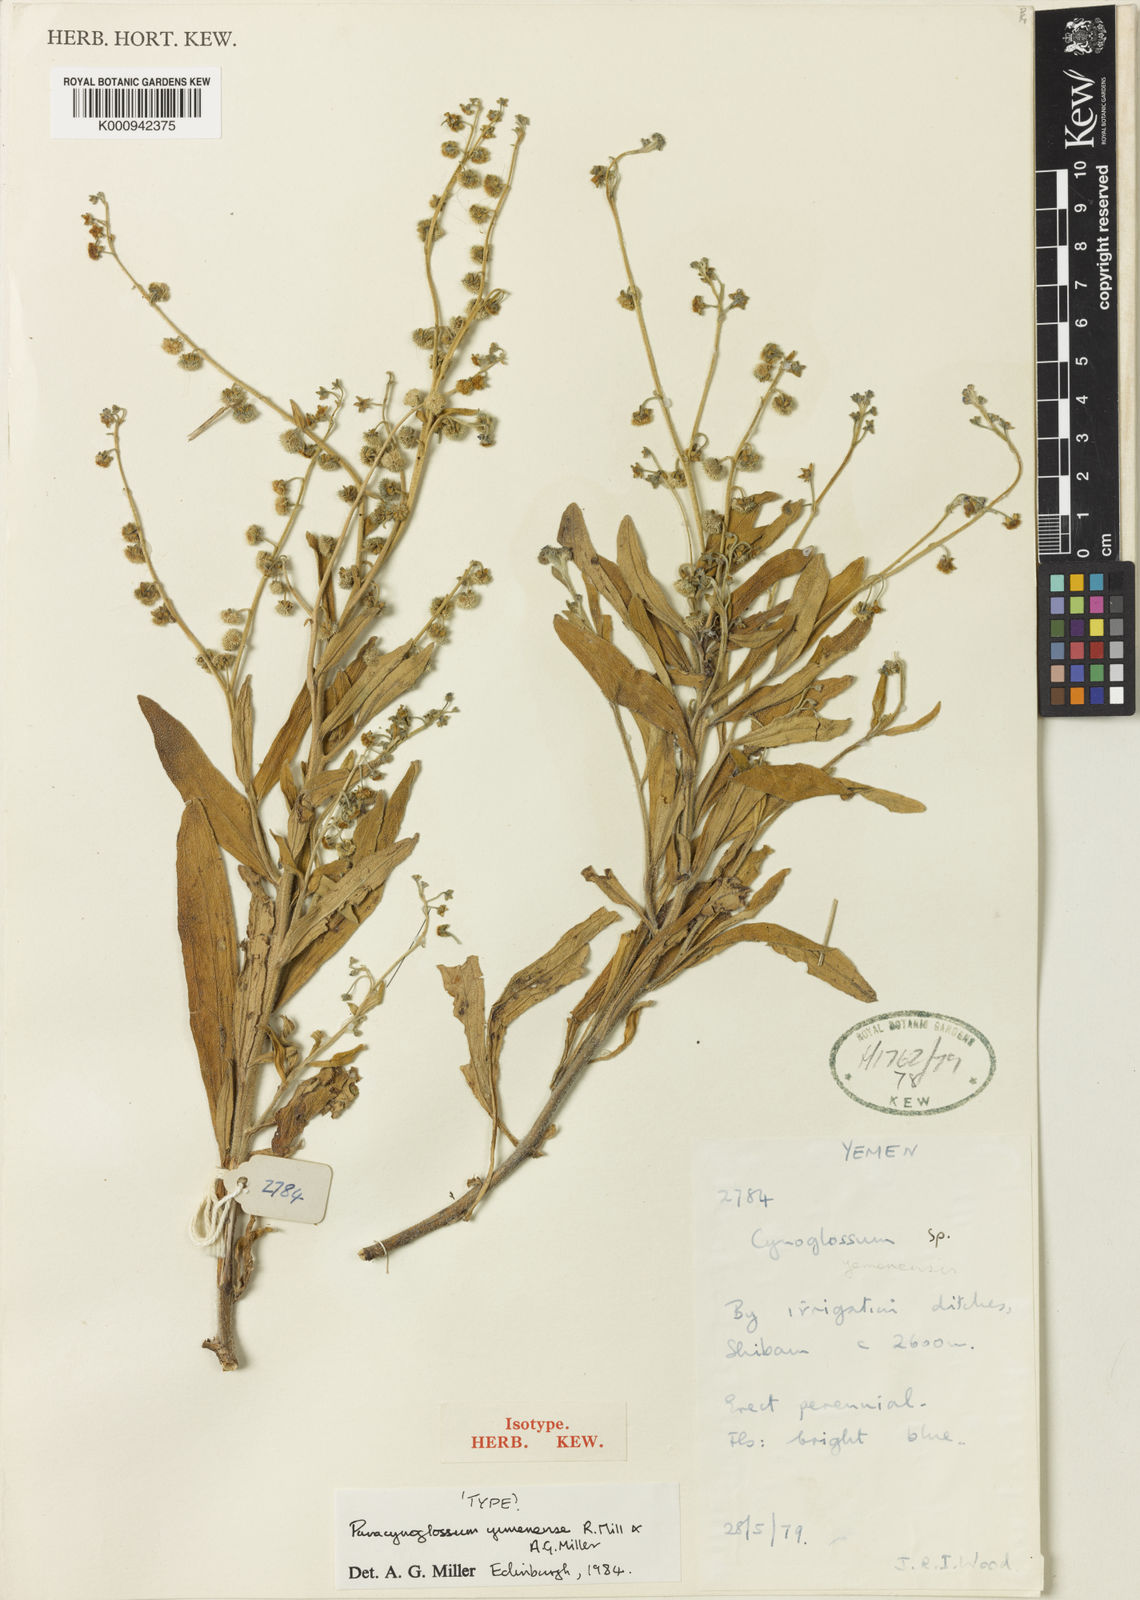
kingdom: Plantae
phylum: Tracheophyta
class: Magnoliopsida
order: Boraginales
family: Boraginaceae
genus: Cynoglossum
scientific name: Cynoglossum
